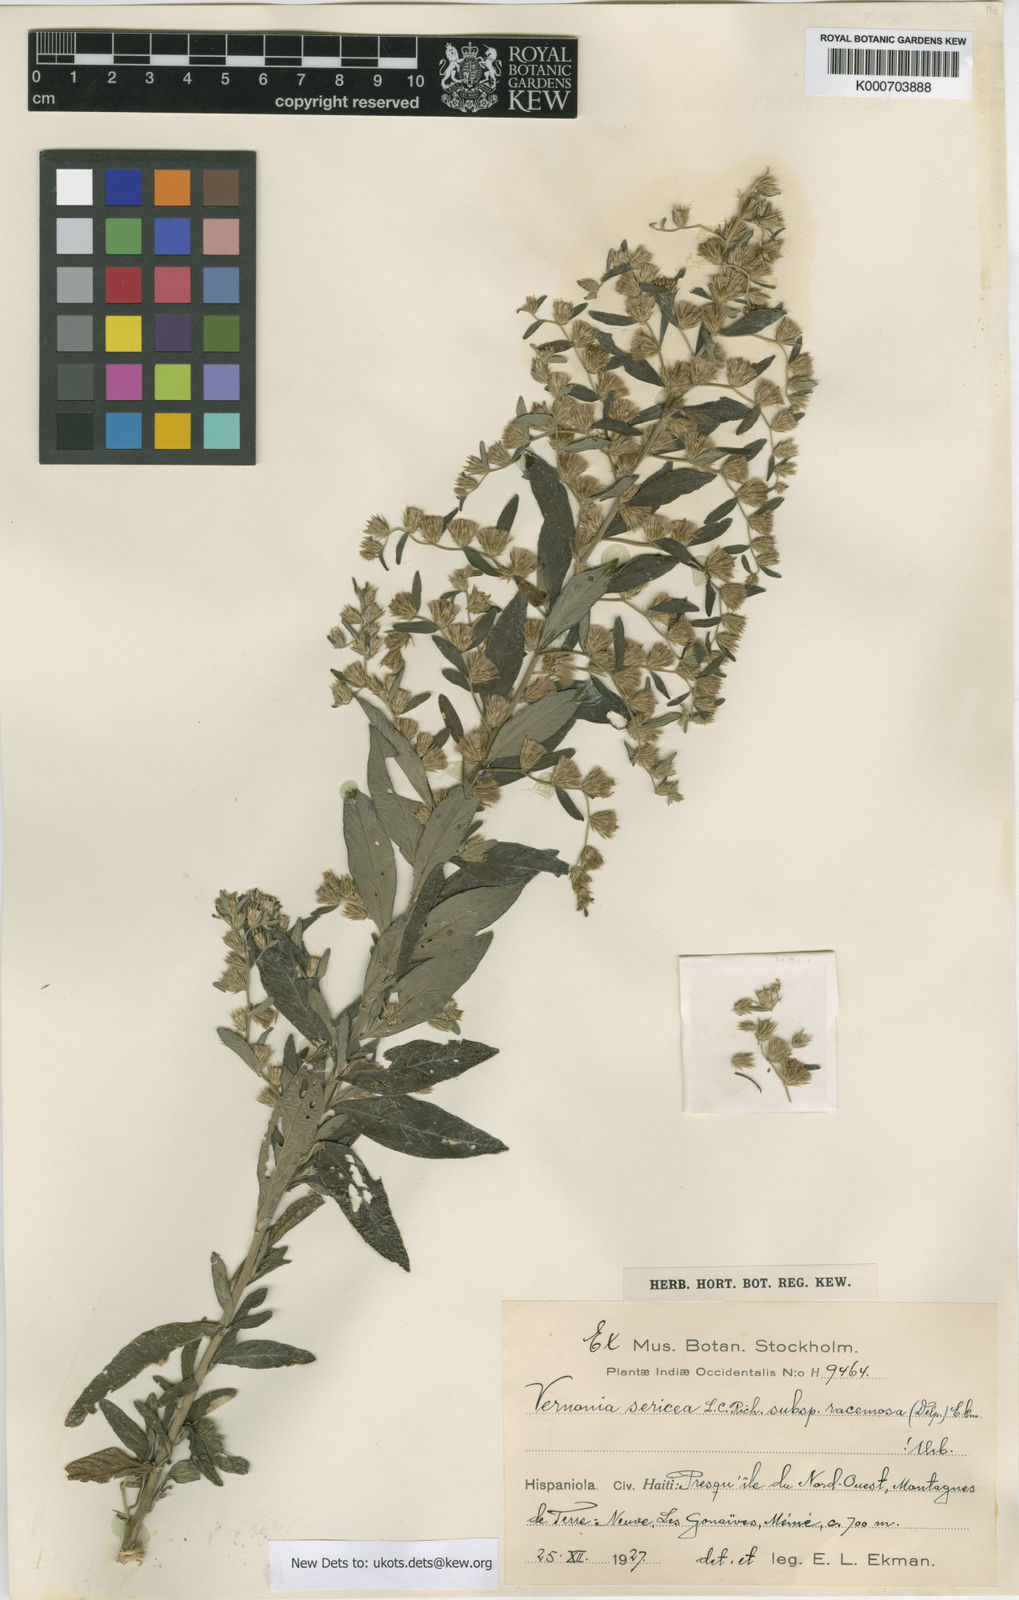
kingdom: Plantae
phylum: Tracheophyta
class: Magnoliopsida
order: Asterales
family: Asteraceae
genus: Lepidaploa
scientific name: Lepidaploa sericea
